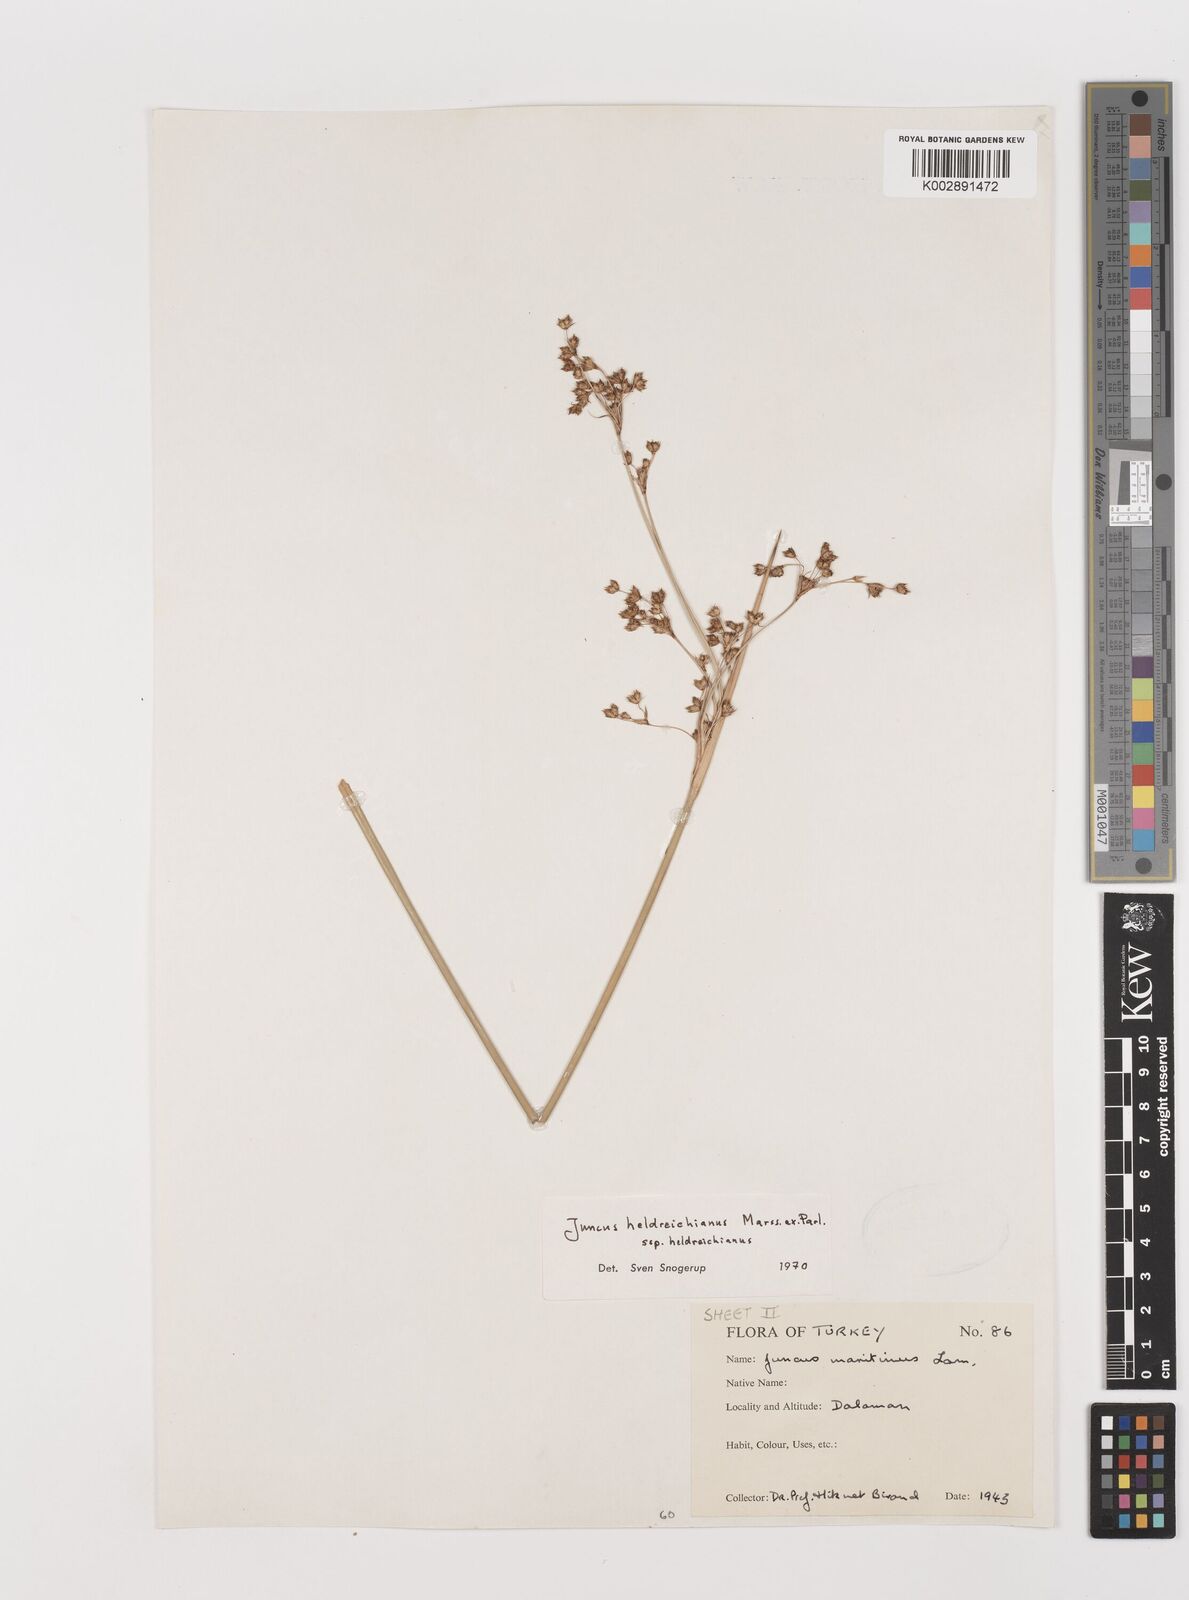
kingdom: Plantae
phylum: Tracheophyta
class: Liliopsida
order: Poales
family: Juncaceae
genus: Juncus
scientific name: Juncus heldreichianus
